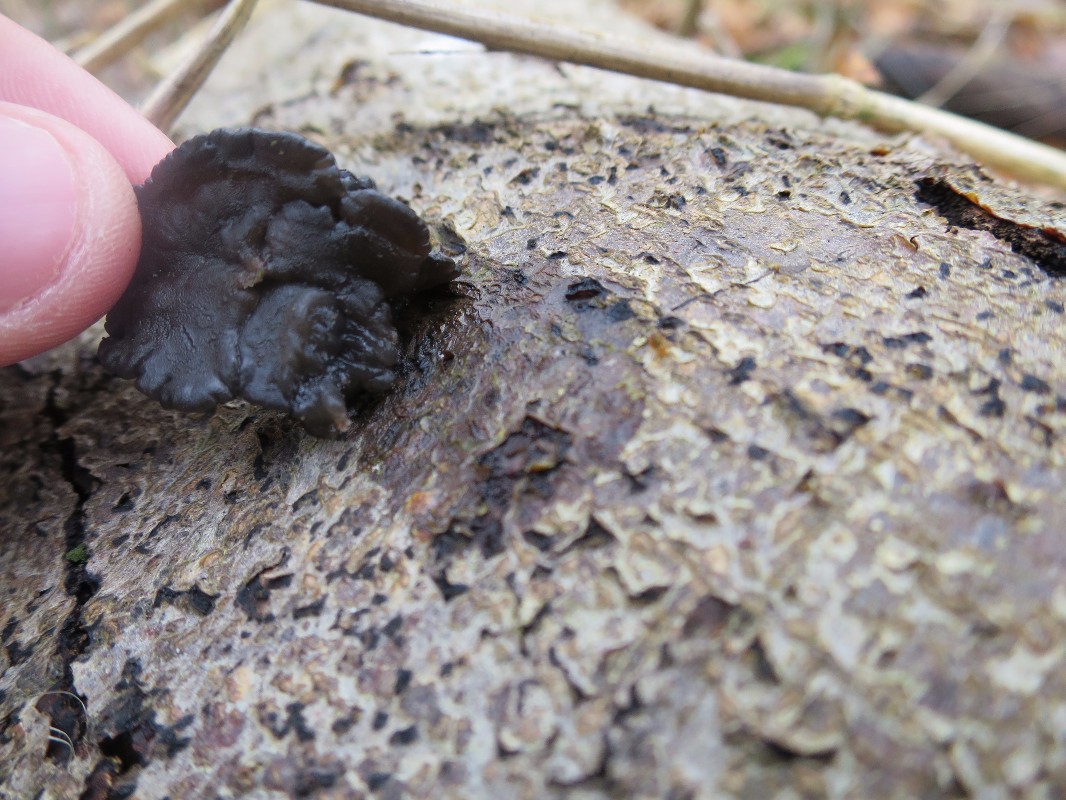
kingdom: Fungi
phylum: Basidiomycota
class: Agaricomycetes
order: Auriculariales
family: Auriculariaceae
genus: Exidia
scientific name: Exidia nigricans
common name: almindelig bævretop
